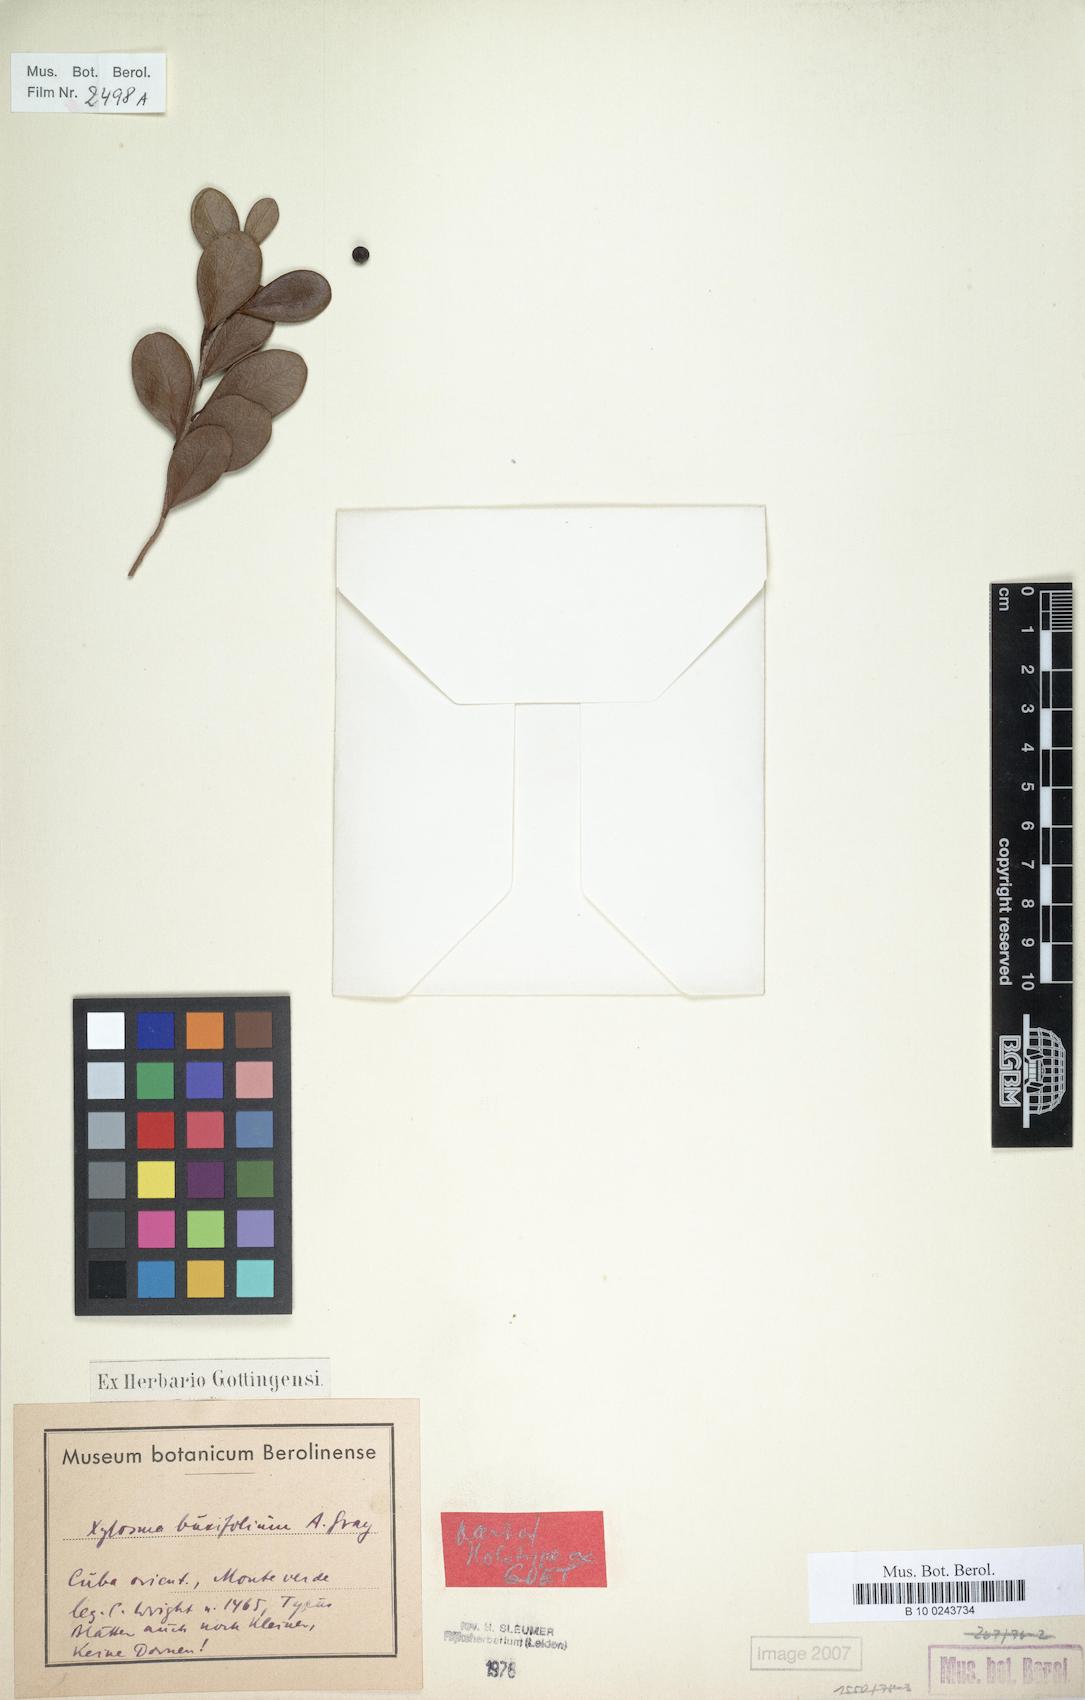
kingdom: Plantae
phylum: Tracheophyta
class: Magnoliopsida
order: Malpighiales
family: Salicaceae
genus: Xylosma
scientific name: Xylosma buxifolia
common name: Cockspur
